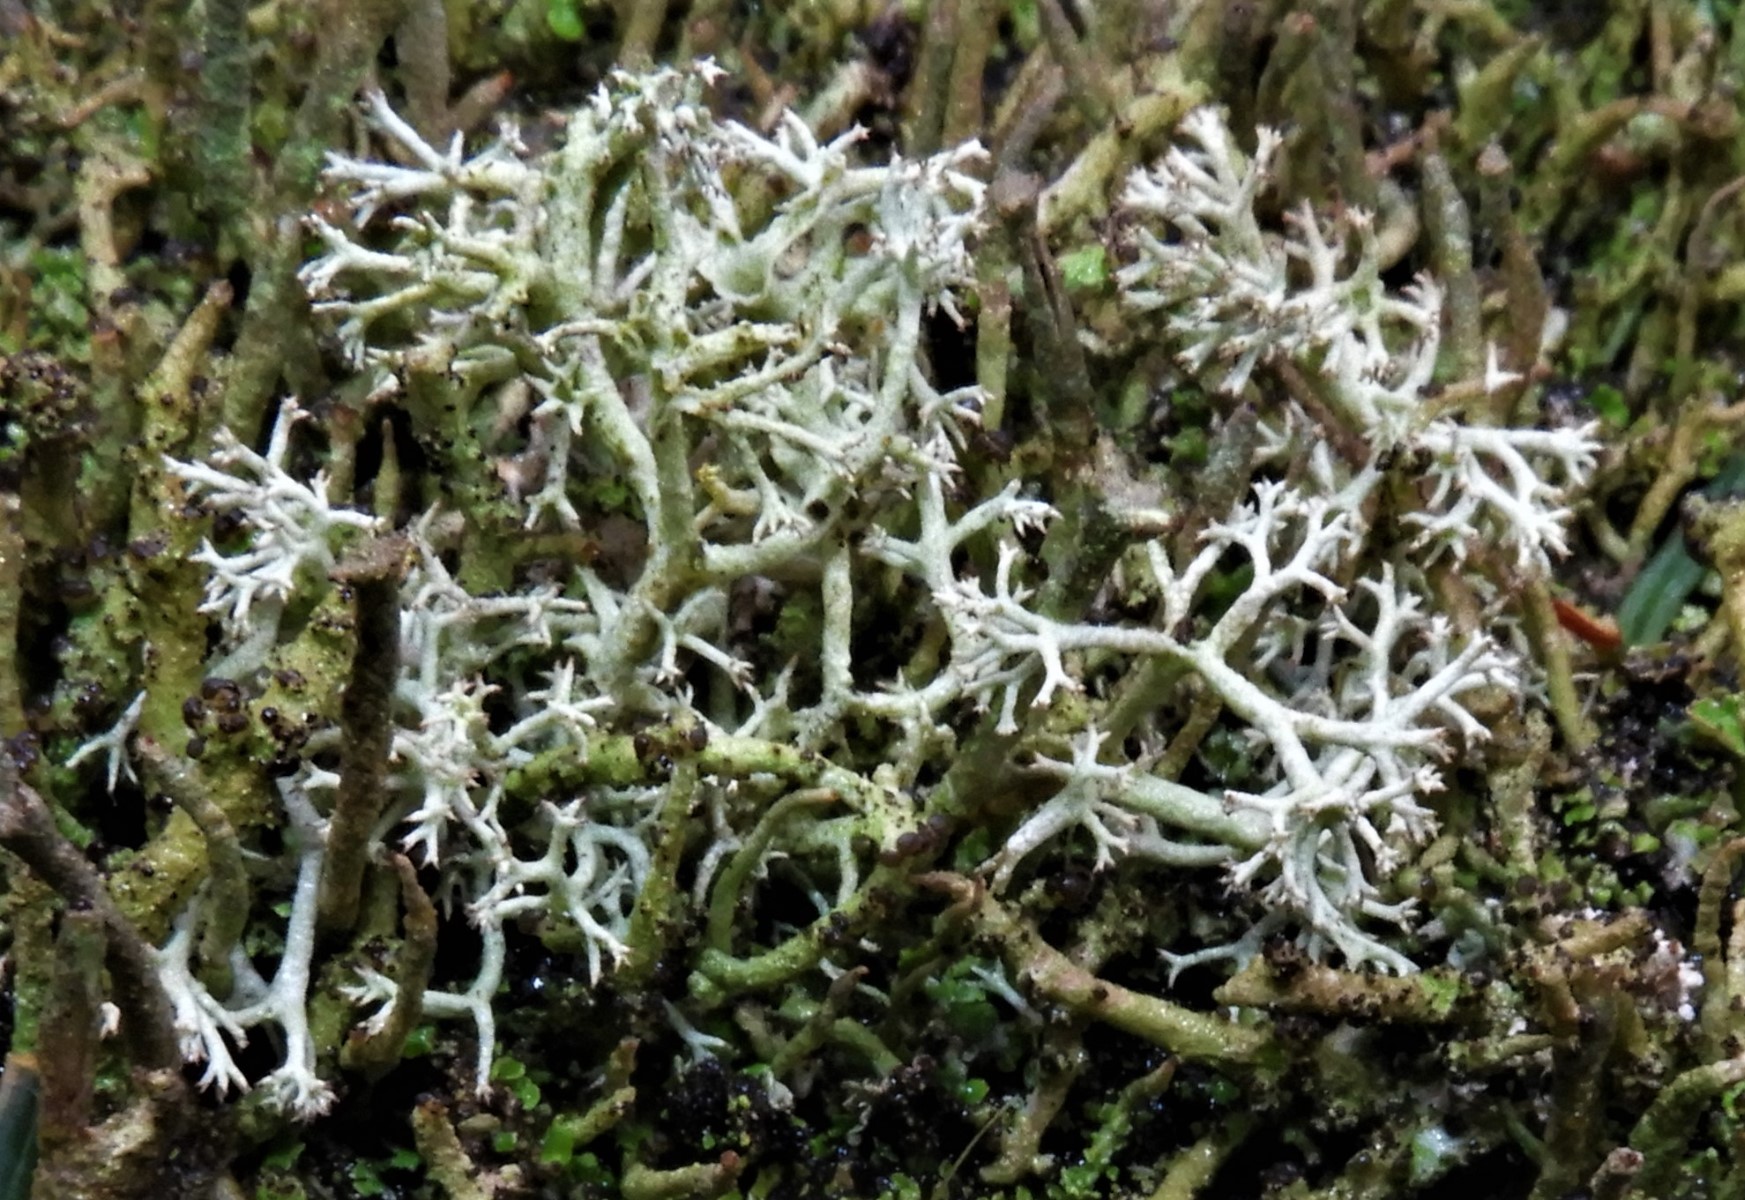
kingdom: Fungi
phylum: Ascomycota
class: Lecanoromycetes
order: Lecanorales
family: Cladoniaceae
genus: Cladonia
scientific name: Cladonia portentosa
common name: hede-rensdyrlav
